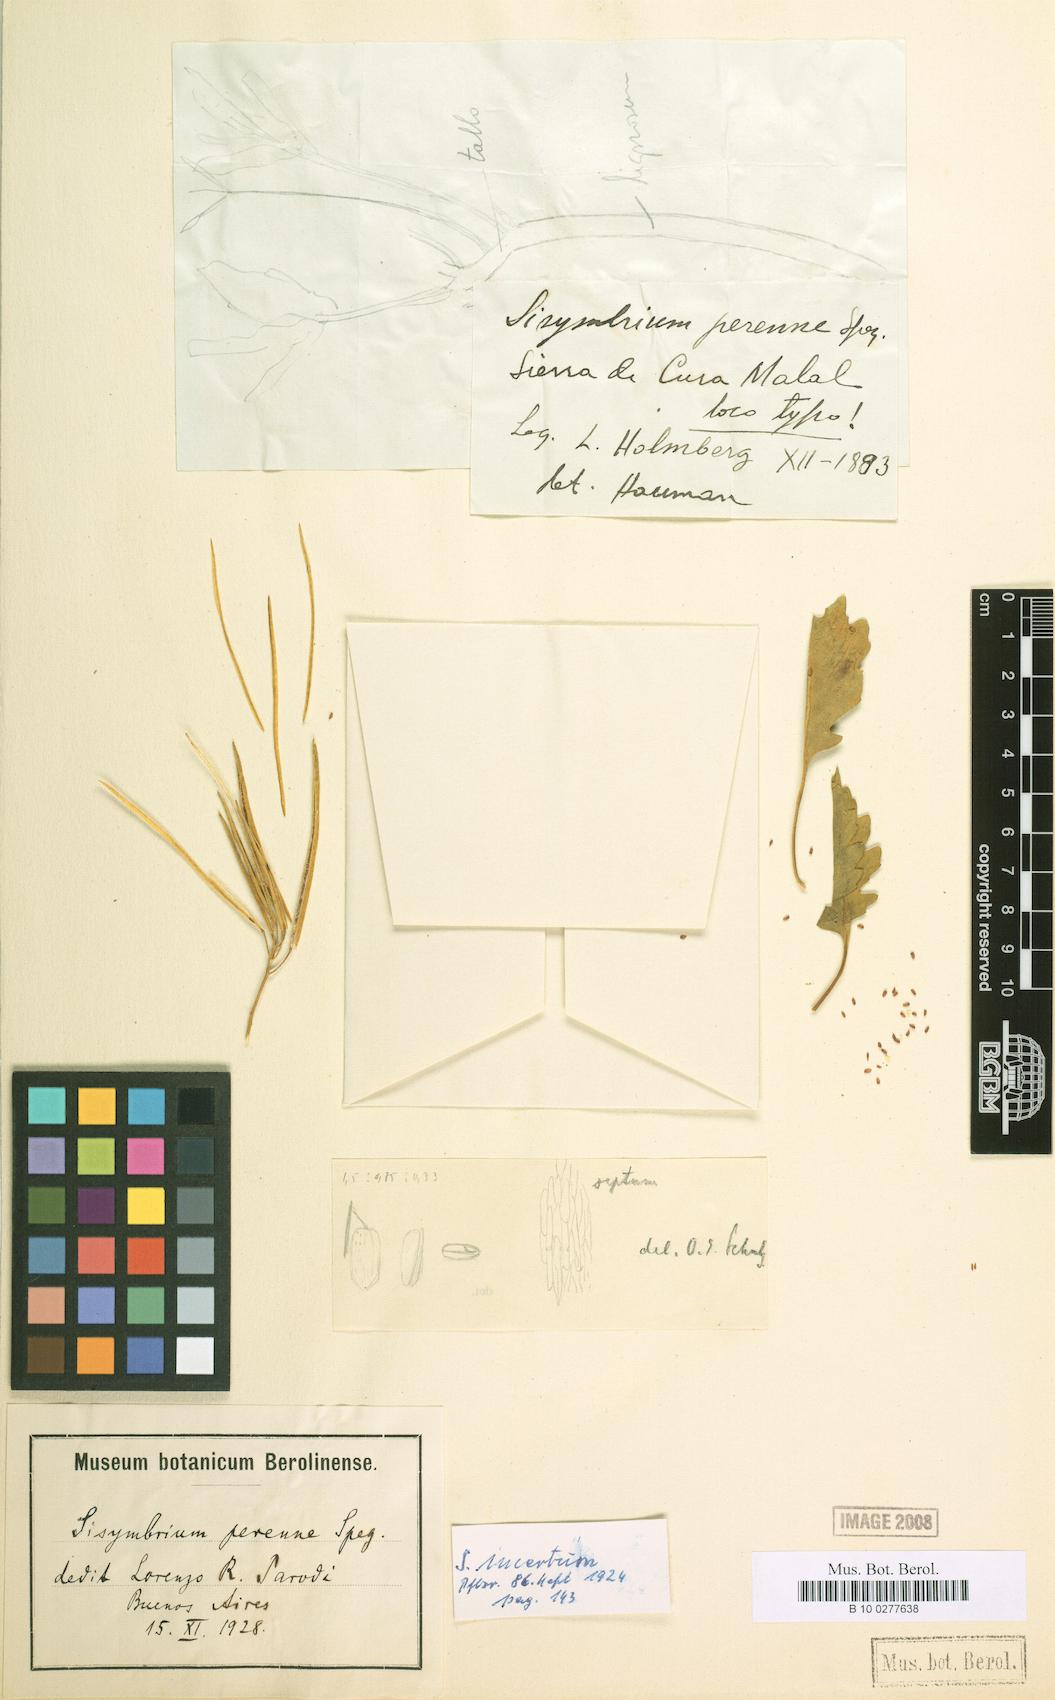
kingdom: Plantae
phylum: Tracheophyta
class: Magnoliopsida
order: Brassicales
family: Brassicaceae
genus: Mostacillastrum
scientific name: Mostacillastrum ventanense
